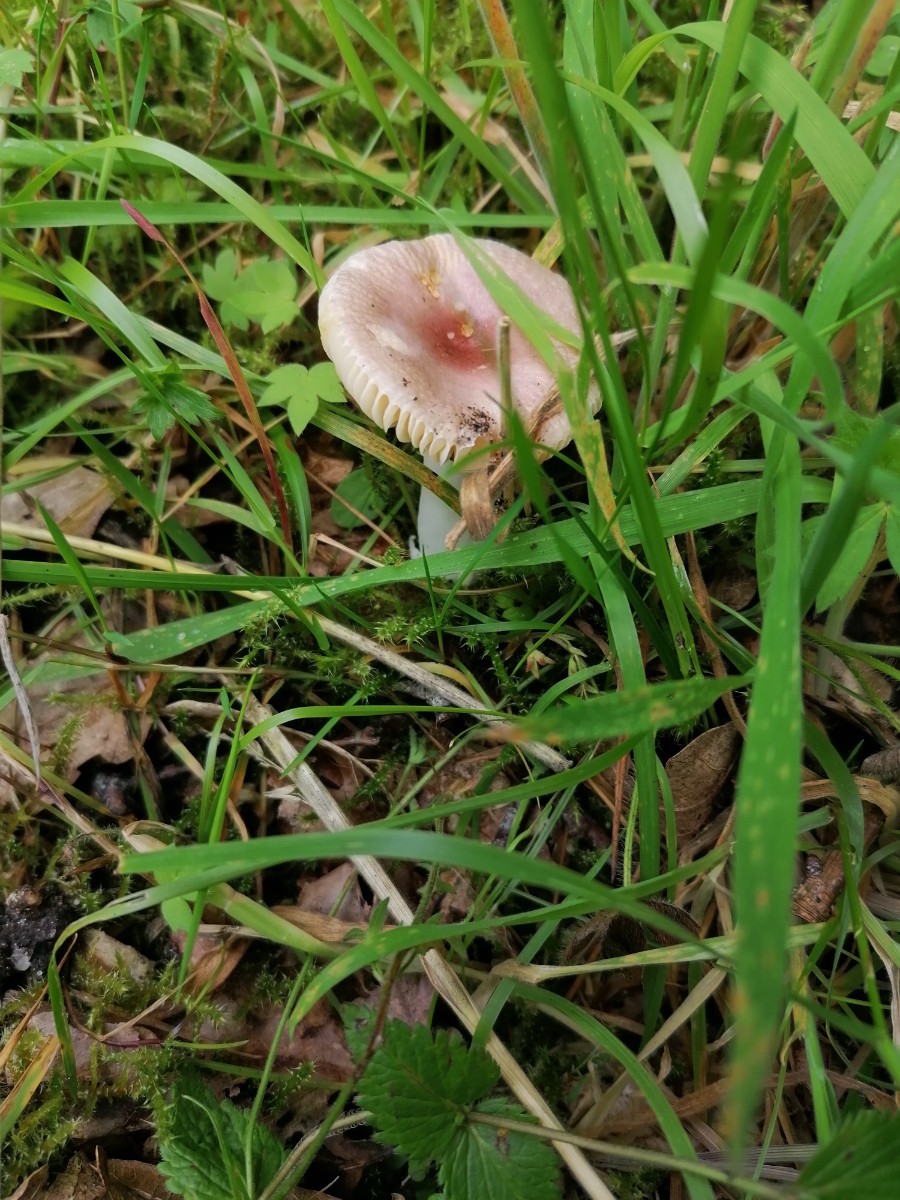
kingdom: Fungi
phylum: Basidiomycota
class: Agaricomycetes
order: Russulales
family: Russulaceae
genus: Russula
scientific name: Russula odorata
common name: duft-skørhat
